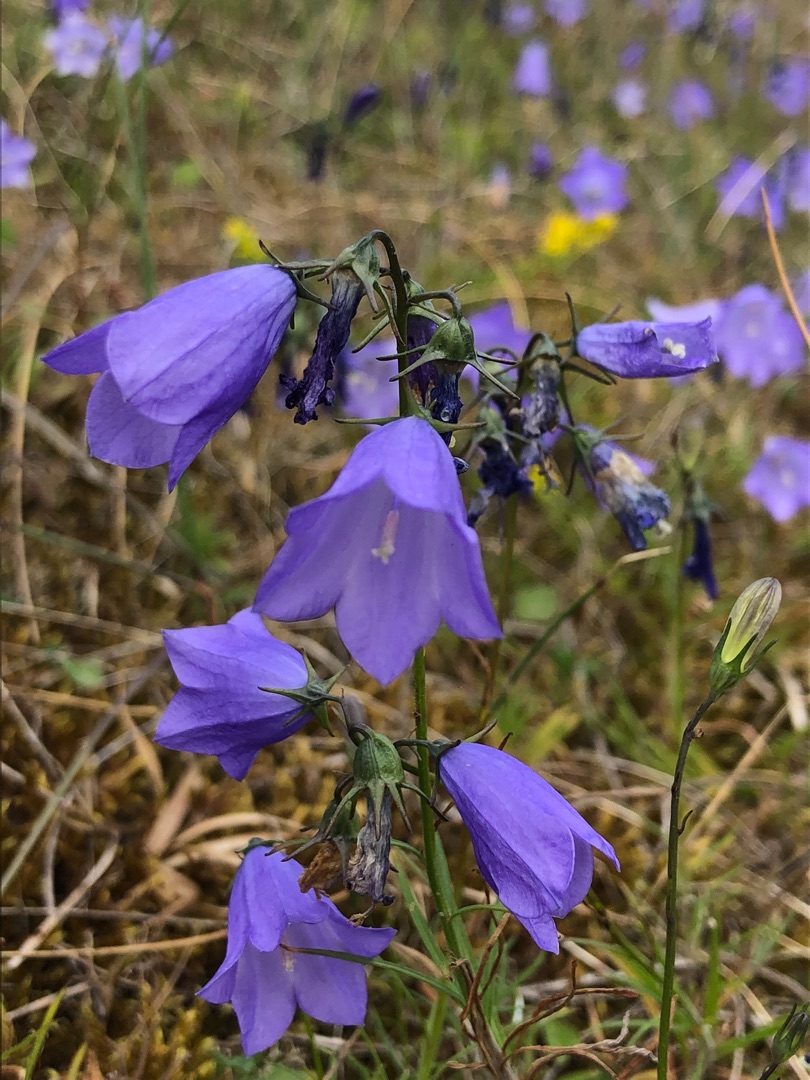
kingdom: Plantae
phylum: Tracheophyta
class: Magnoliopsida
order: Asterales
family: Campanulaceae
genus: Campanula
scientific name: Campanula rotundifolia
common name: Liden klokke
